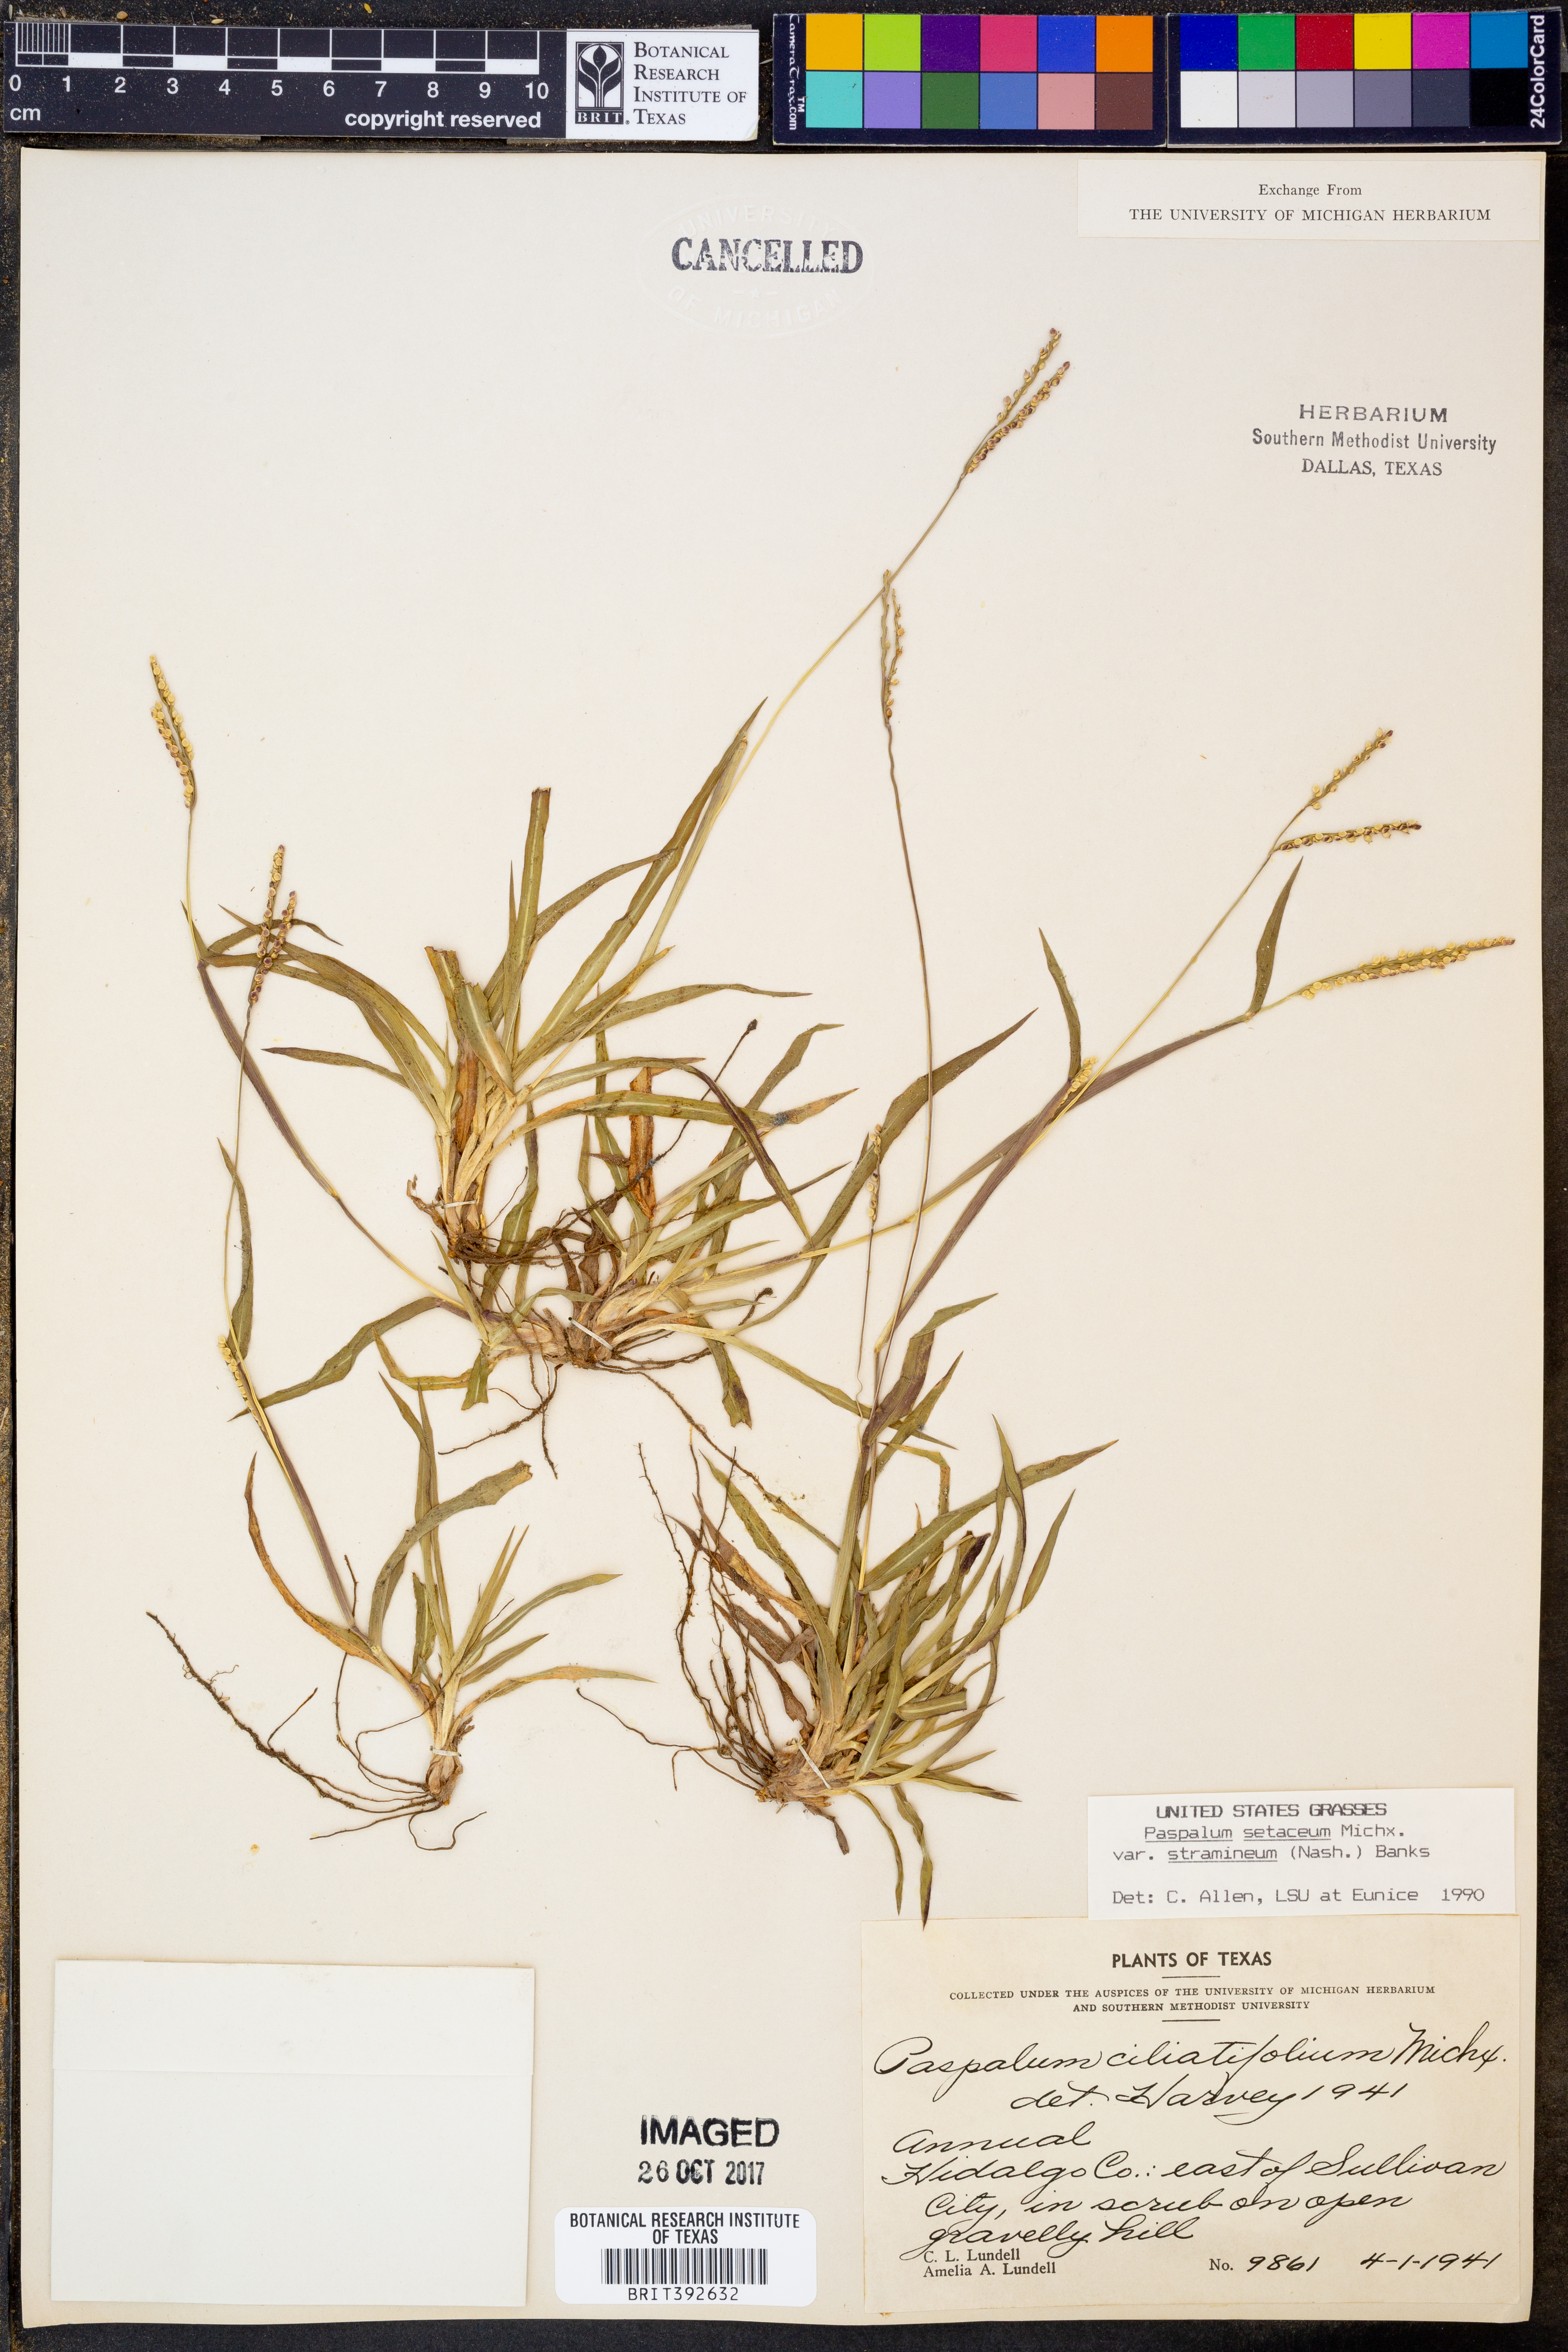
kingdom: Plantae
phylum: Tracheophyta
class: Liliopsida
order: Poales
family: Poaceae
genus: Paspalum
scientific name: Paspalum setaceum
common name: Slender paspalum
